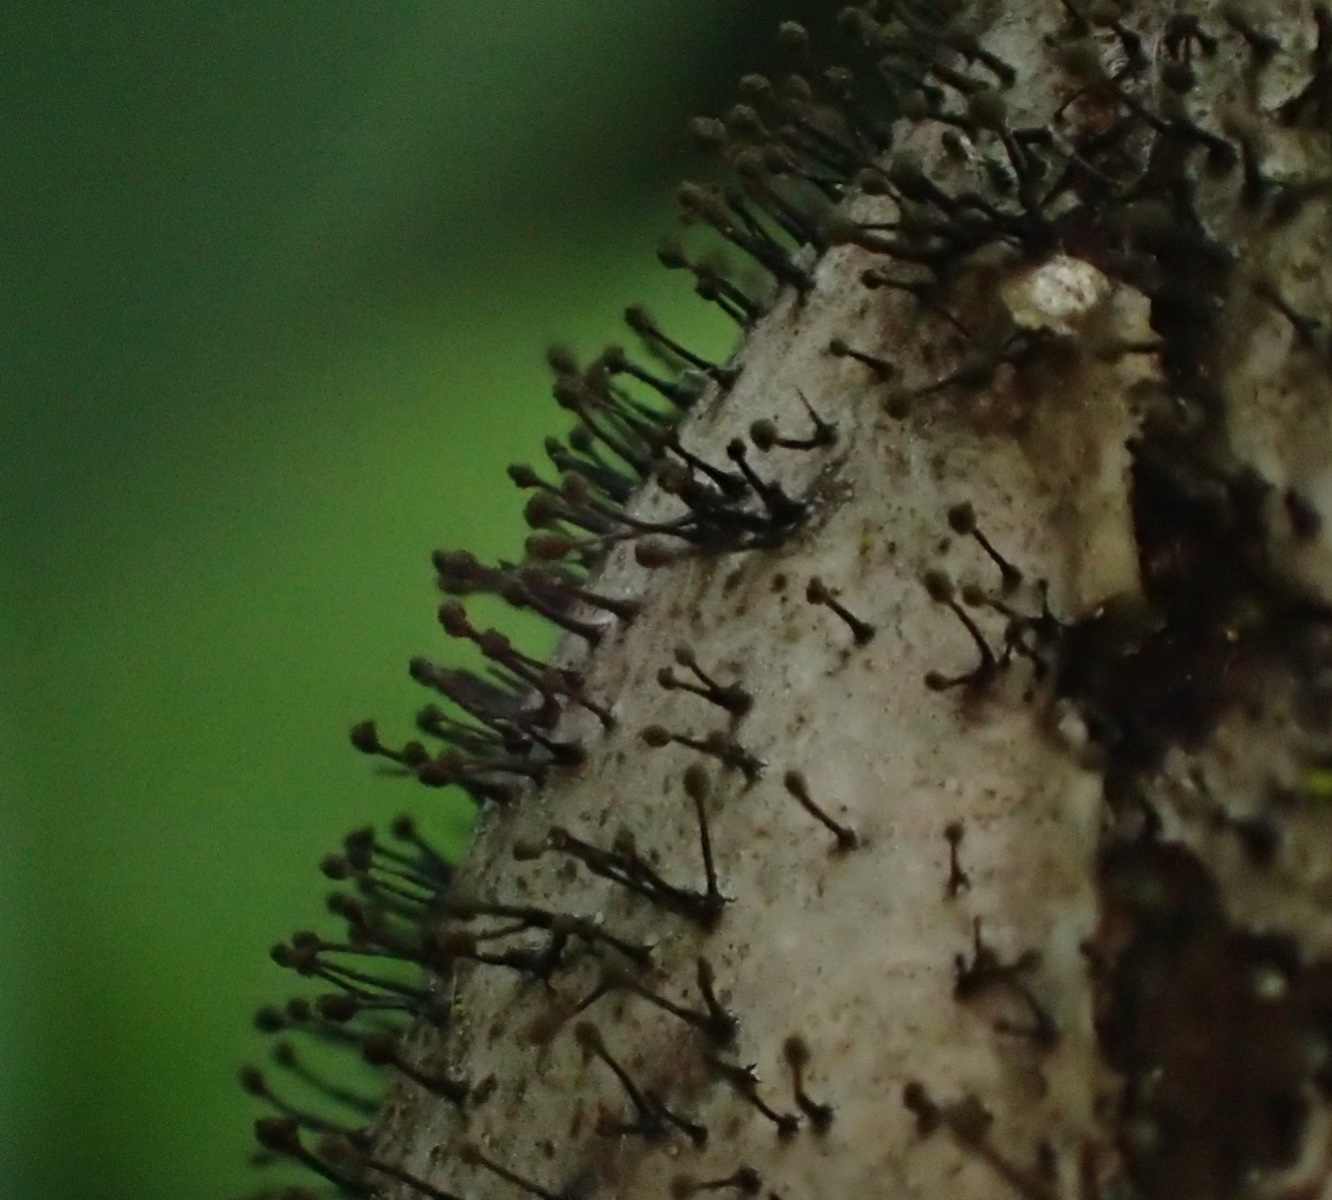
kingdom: Fungi
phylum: Ascomycota
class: Dothideomycetes
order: Pleosporales
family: Melanommataceae
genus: Seifertia
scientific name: Seifertia azaleae
